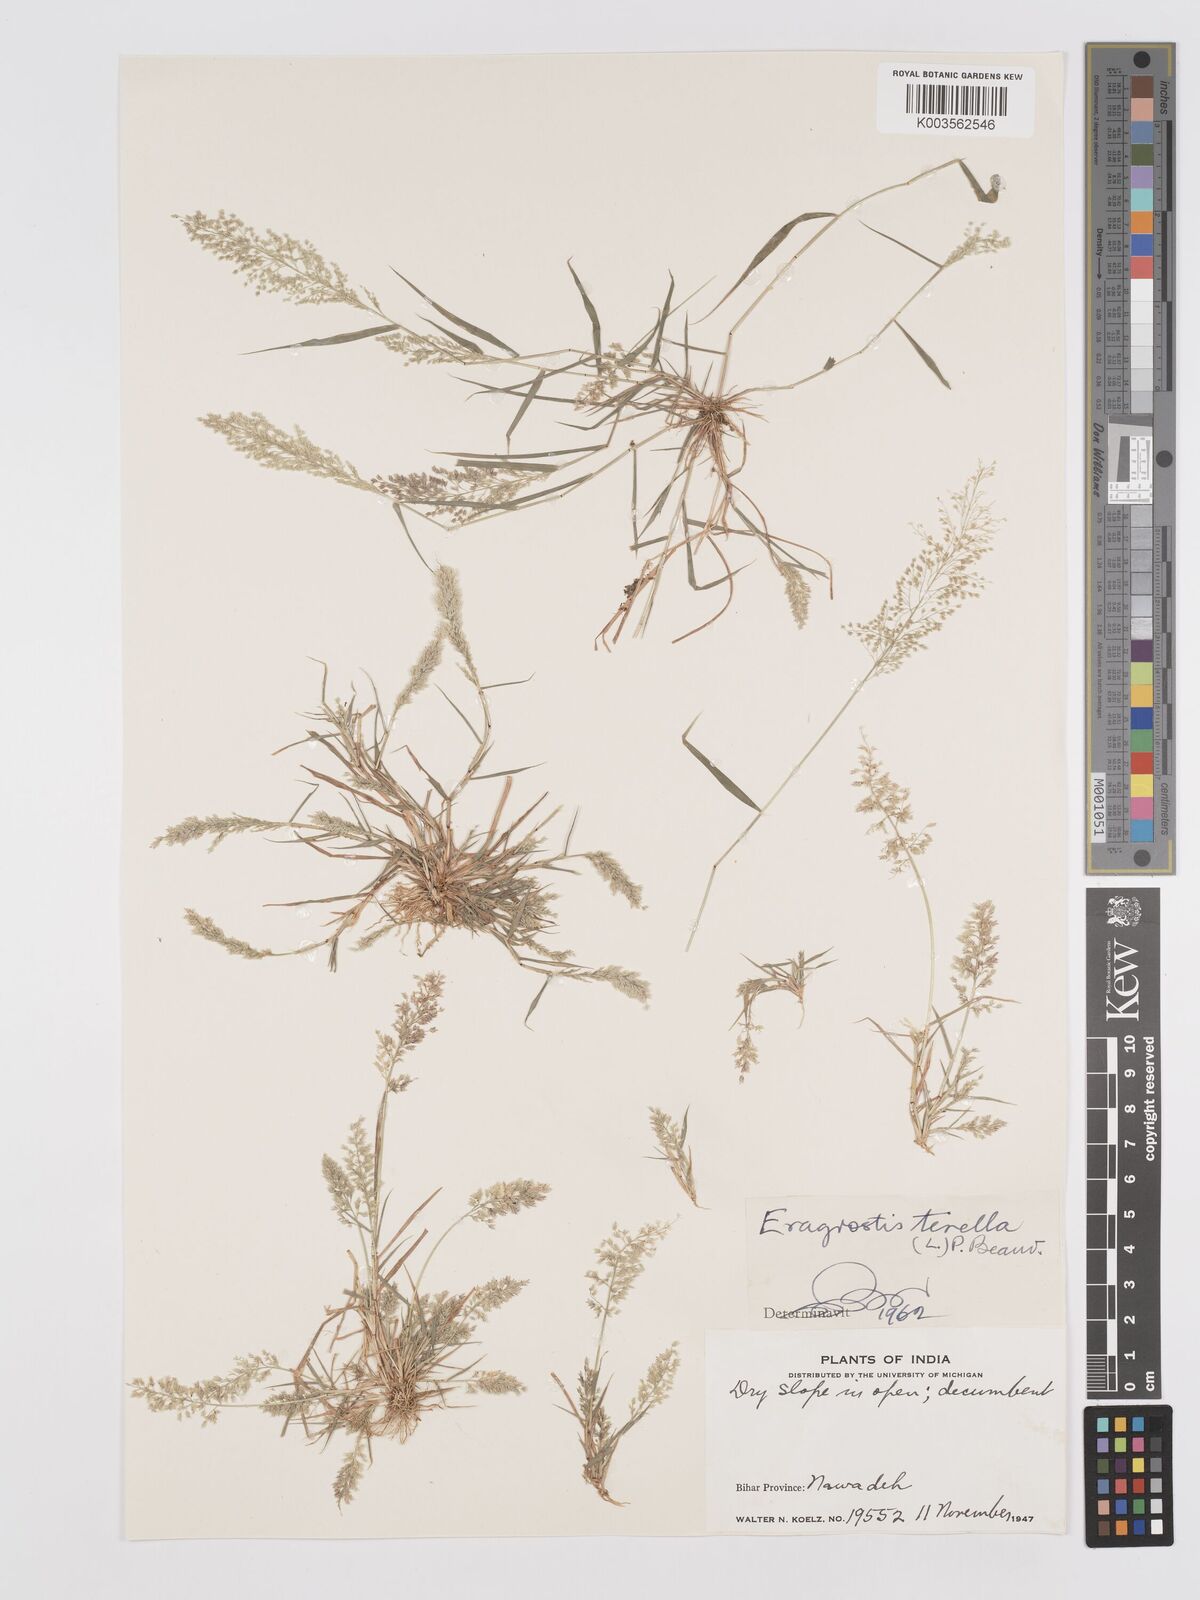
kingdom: Plantae
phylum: Tracheophyta
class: Liliopsida
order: Poales
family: Poaceae
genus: Eragrostis
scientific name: Eragrostis tenella
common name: Japanese lovegrass
